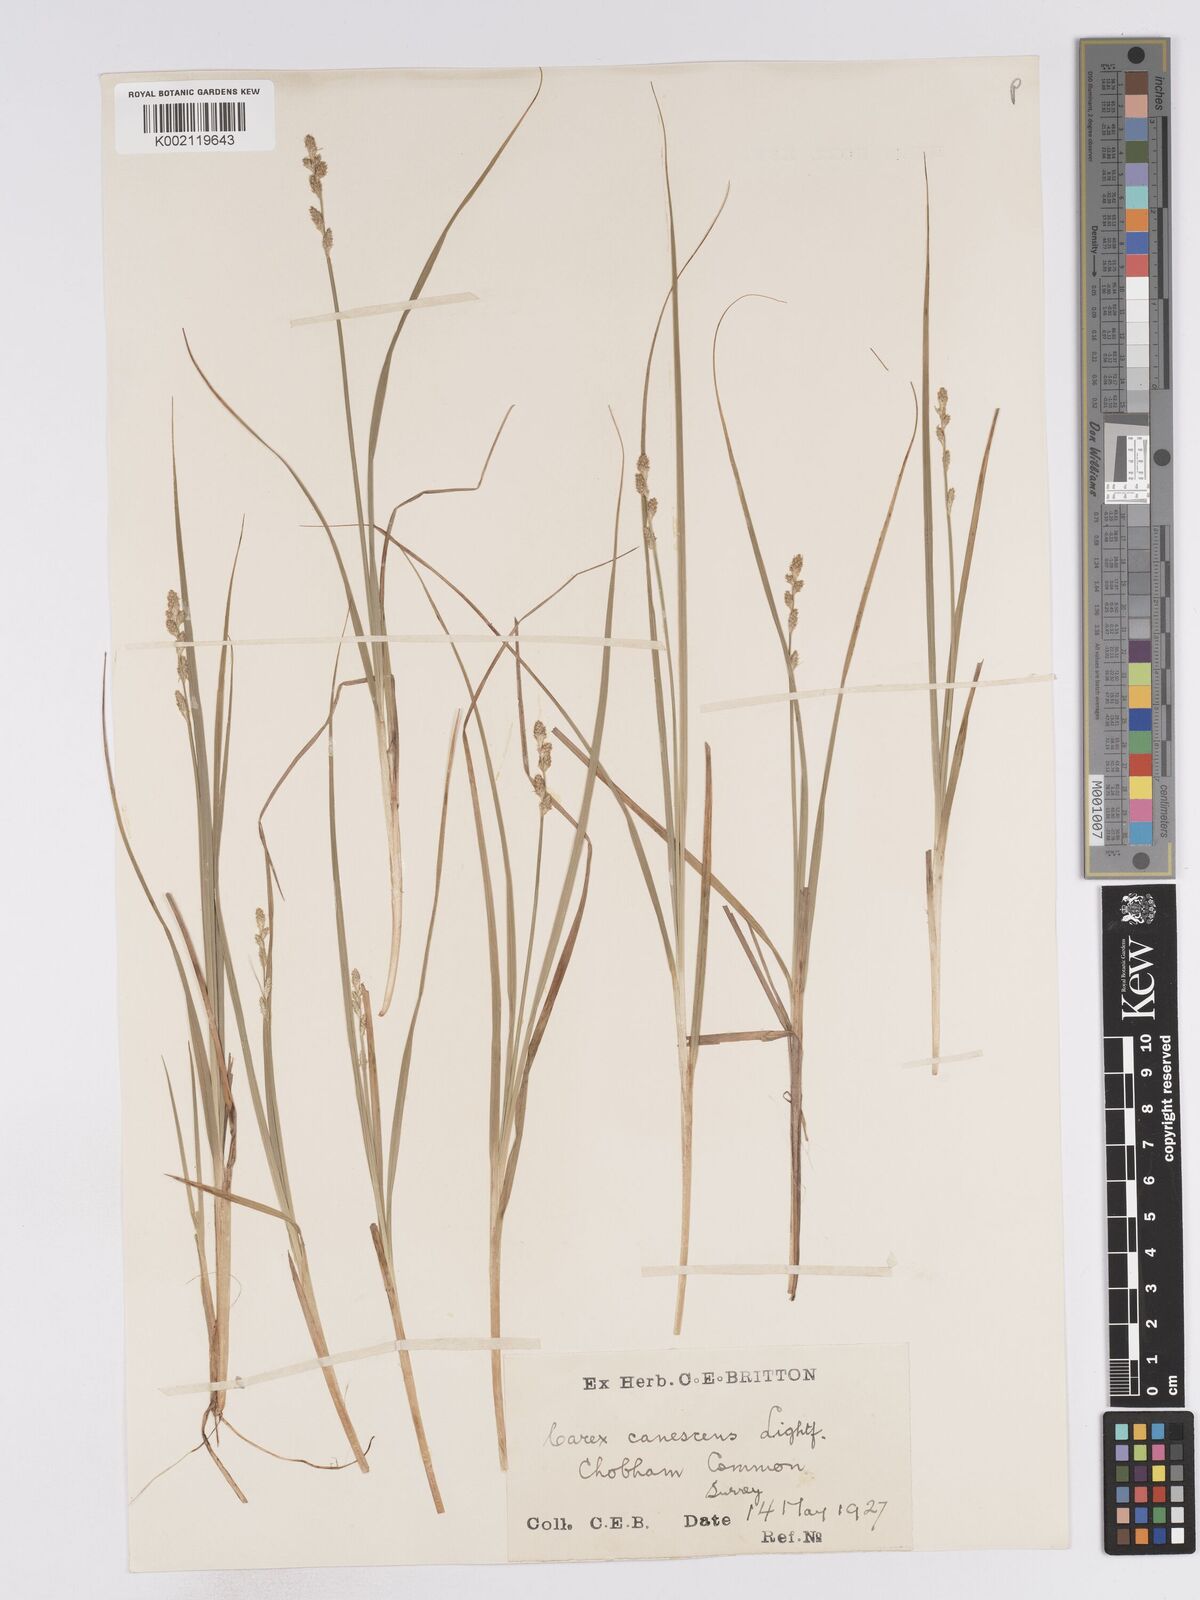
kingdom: Plantae
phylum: Tracheophyta
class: Liliopsida
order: Poales
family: Cyperaceae
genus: Carex
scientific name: Carex curta
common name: White sedge
